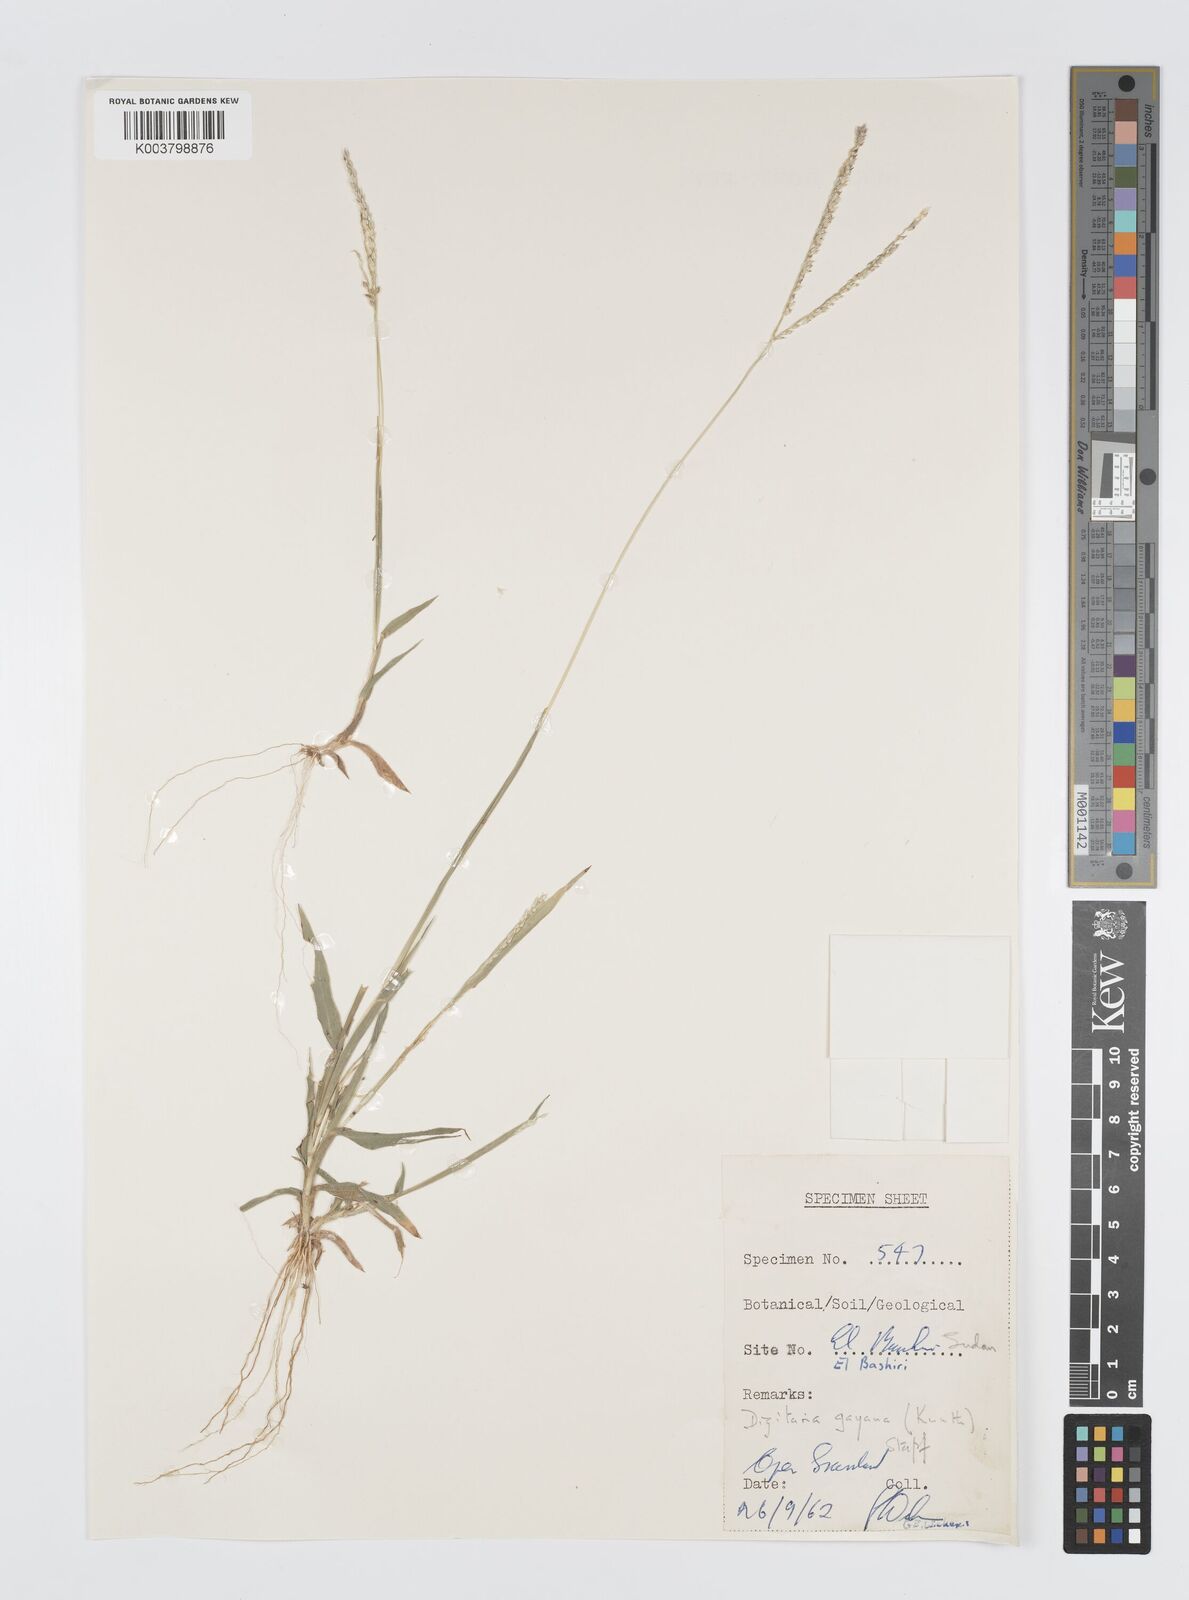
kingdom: Plantae
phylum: Tracheophyta
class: Liliopsida
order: Poales
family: Poaceae
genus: Digitaria
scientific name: Digitaria gayana
